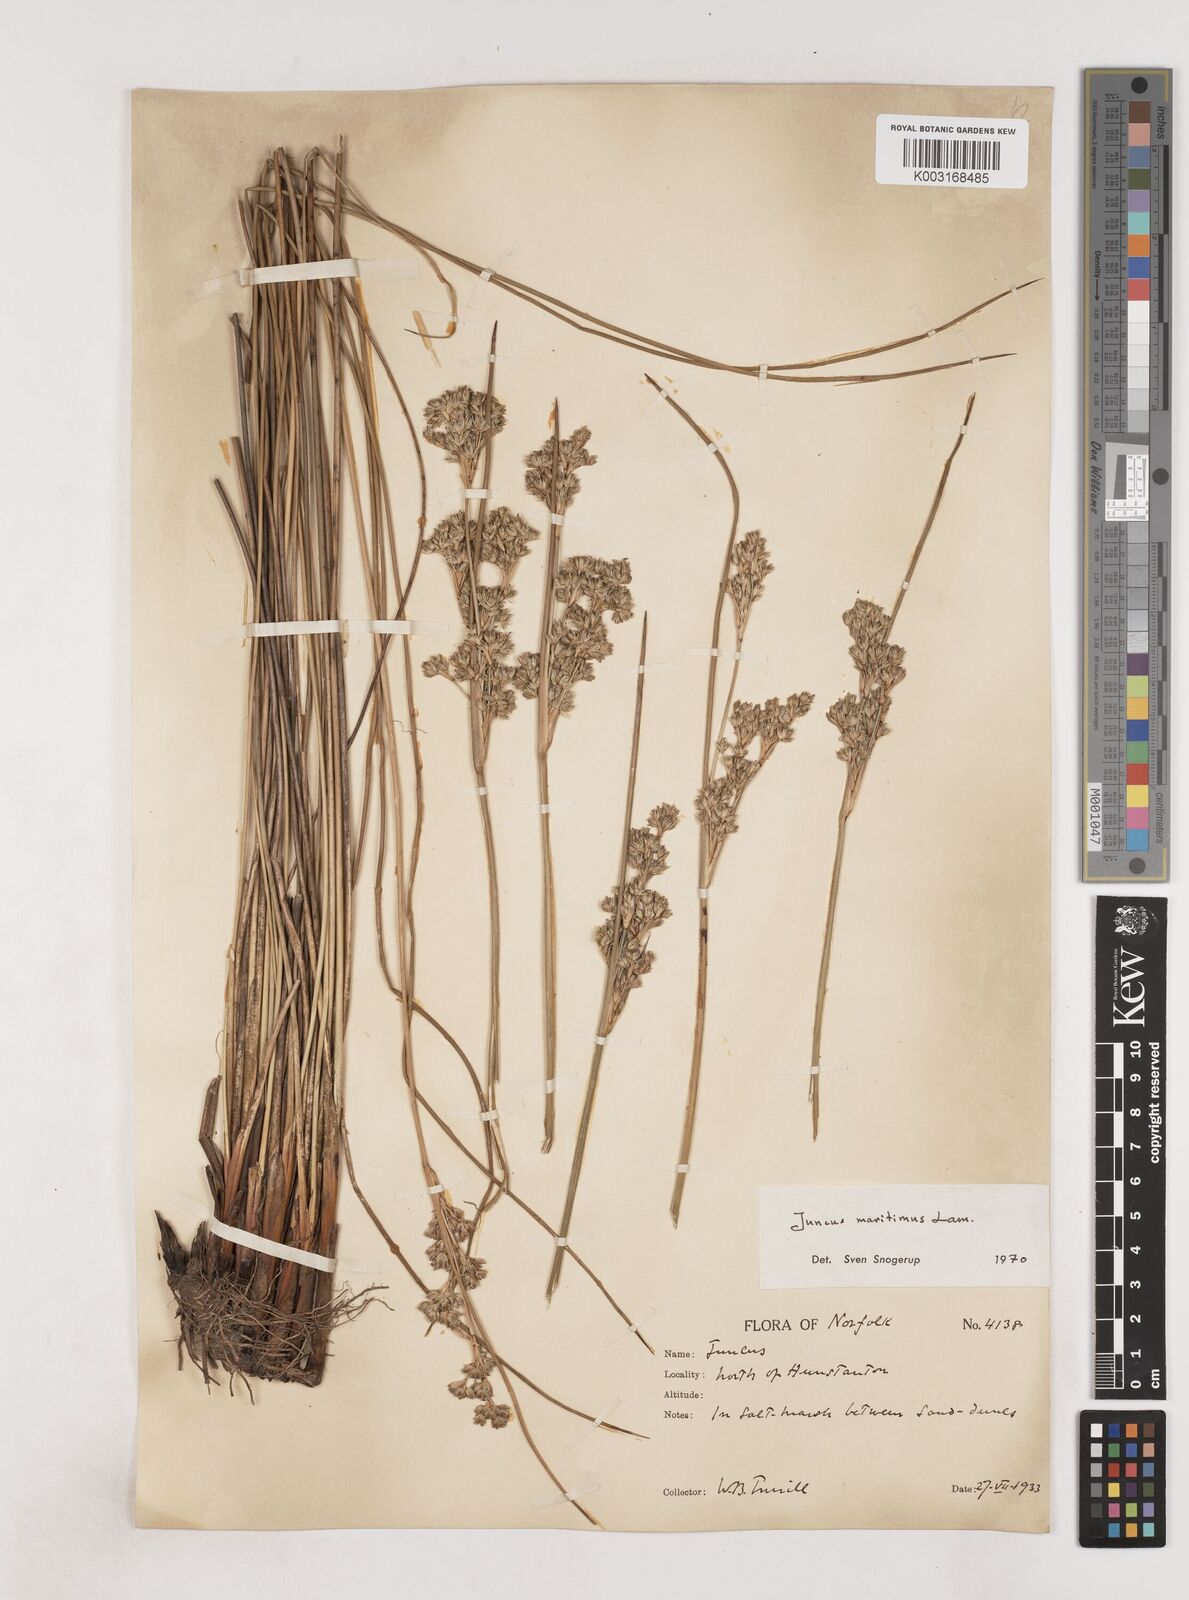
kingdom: Plantae
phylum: Tracheophyta
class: Liliopsida
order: Poales
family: Juncaceae
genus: Juncus
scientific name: Juncus maritimus
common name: Sea rush
